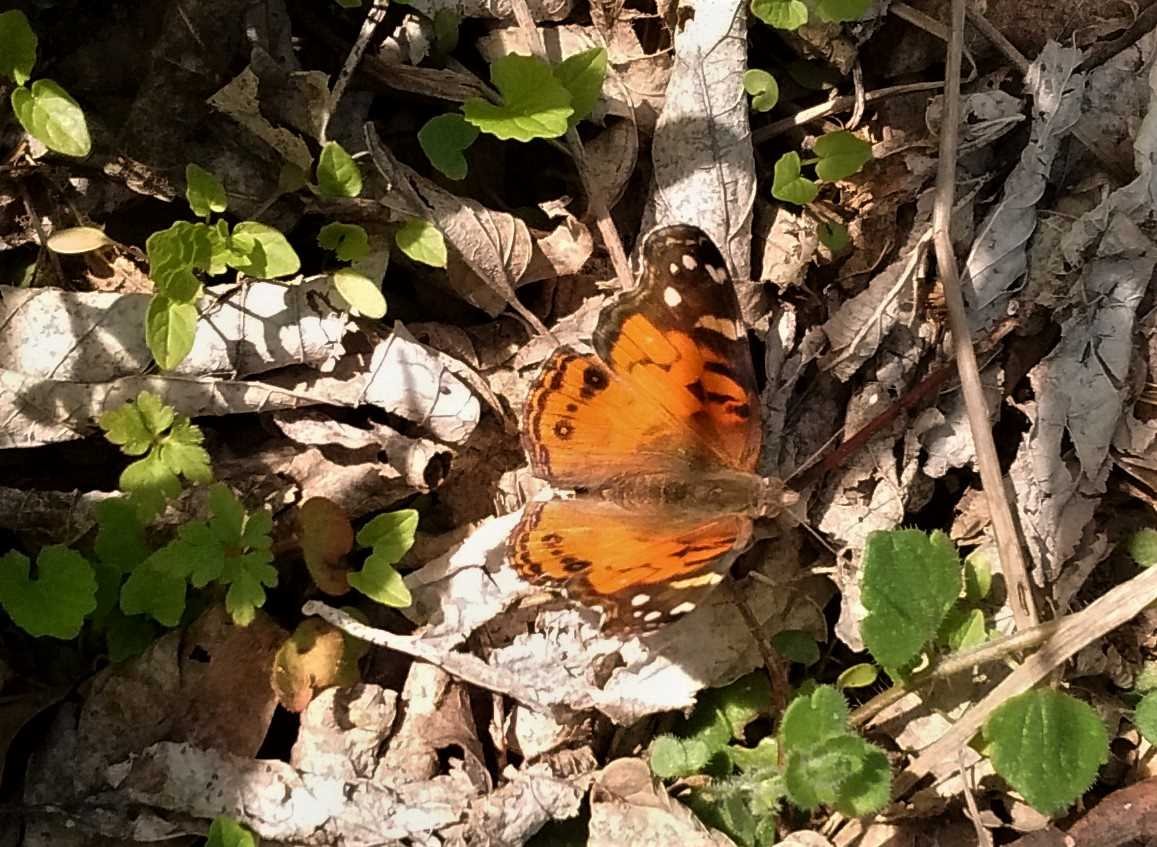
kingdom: Animalia
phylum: Arthropoda
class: Insecta
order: Lepidoptera
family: Nymphalidae
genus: Vanessa
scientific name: Vanessa virginiensis
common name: American Lady
